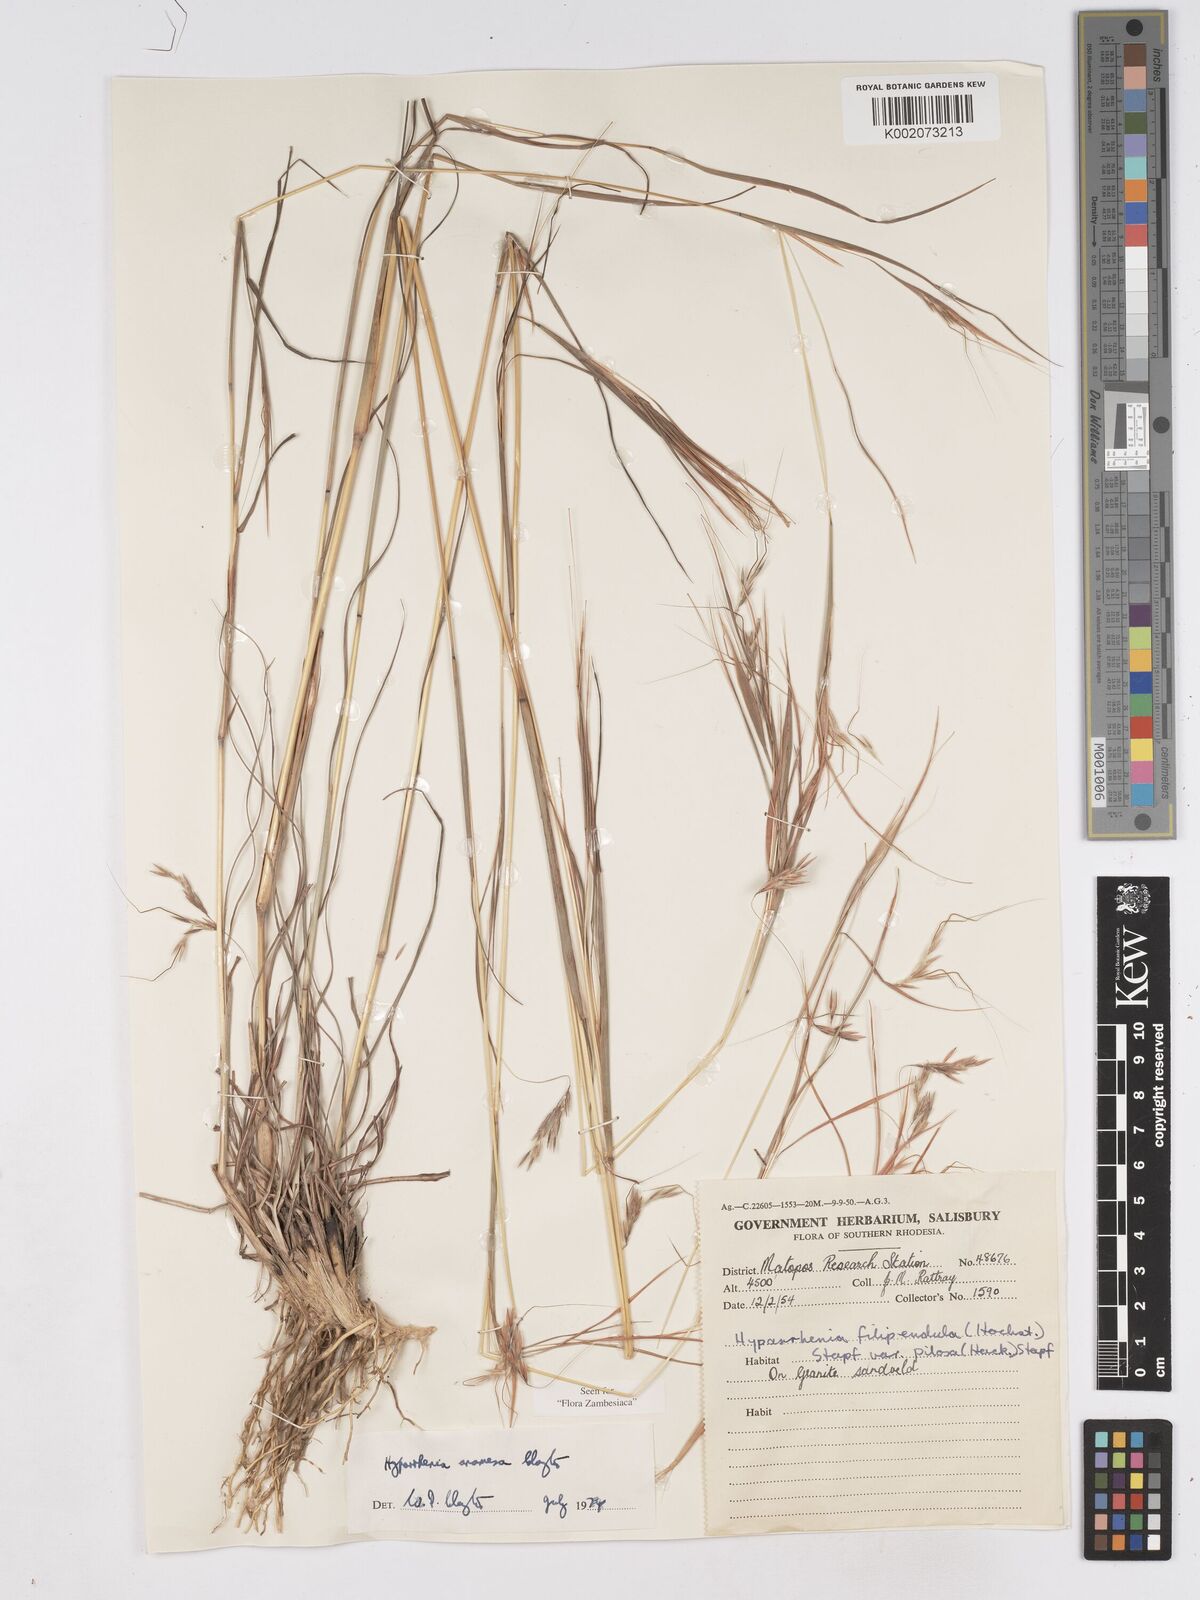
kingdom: Plantae
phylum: Tracheophyta
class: Liliopsida
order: Poales
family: Poaceae
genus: Hyparrhenia
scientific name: Hyparrhenia anamesa
